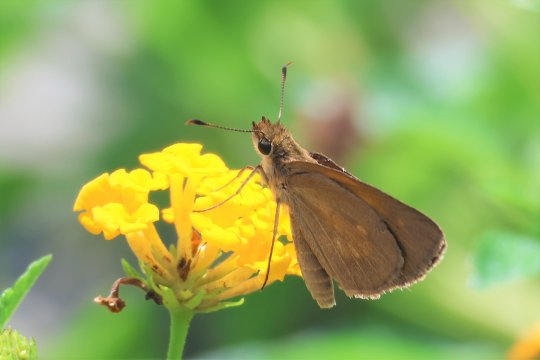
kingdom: Animalia
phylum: Arthropoda
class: Insecta
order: Lepidoptera
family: Hesperiidae
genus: Poanes
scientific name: Poanes viator
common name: Broad-winged Skipper
